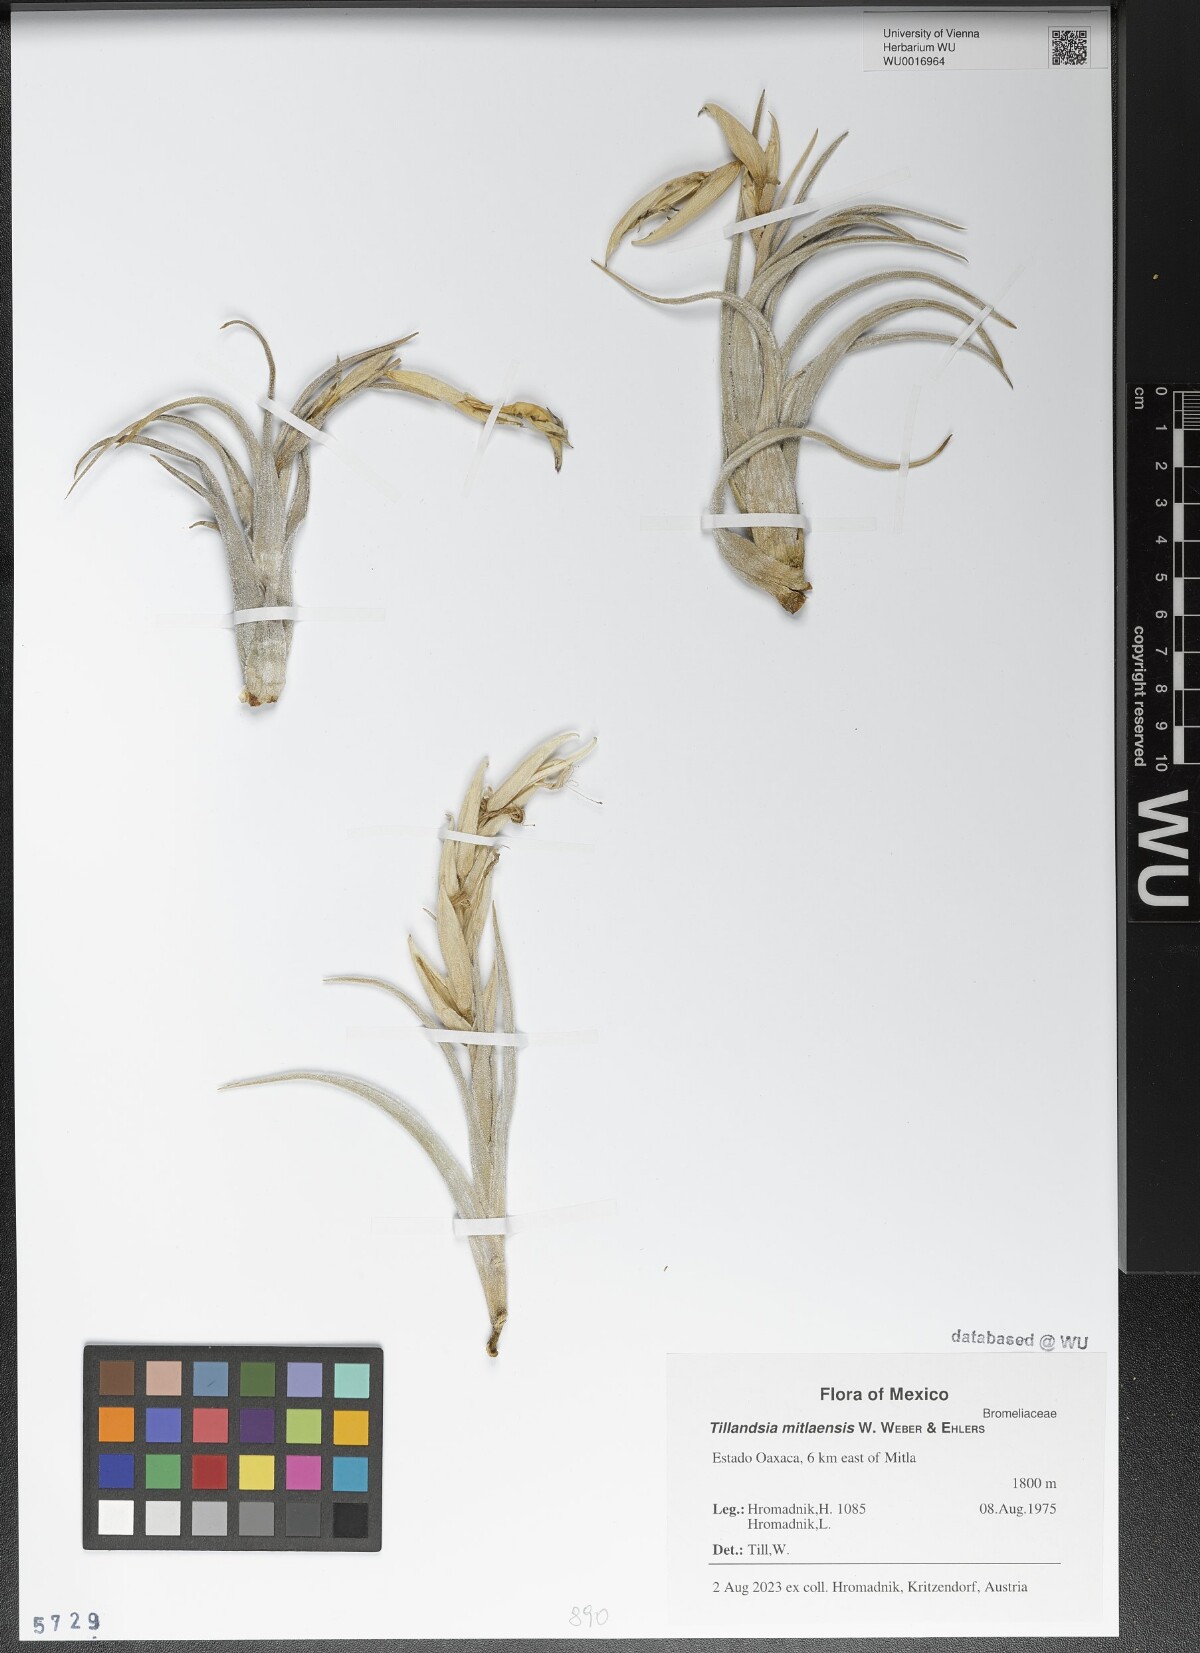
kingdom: Plantae
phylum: Tracheophyta
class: Liliopsida
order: Poales
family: Bromeliaceae
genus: Tillandsia
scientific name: Tillandsia mitlaensis
